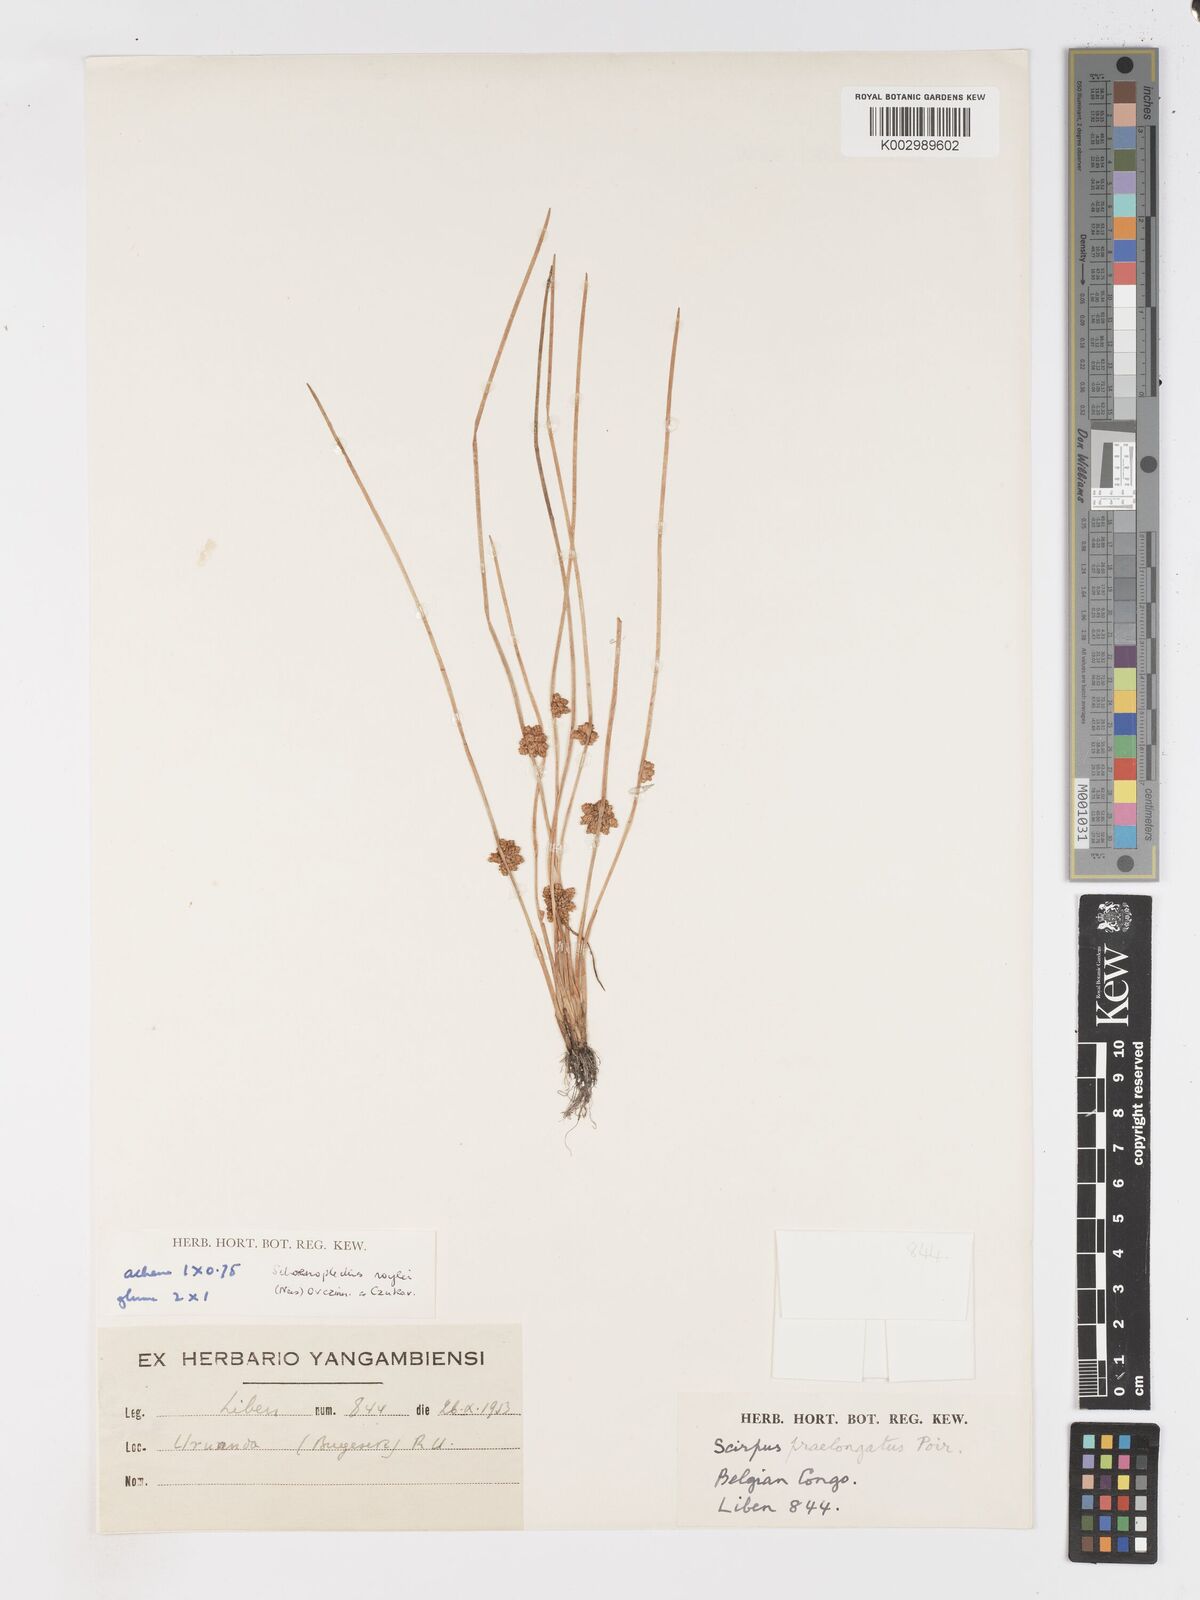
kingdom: Plantae
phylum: Tracheophyta
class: Liliopsida
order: Poales
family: Cyperaceae
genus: Schoenoplectiella
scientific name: Schoenoplectiella roylei
